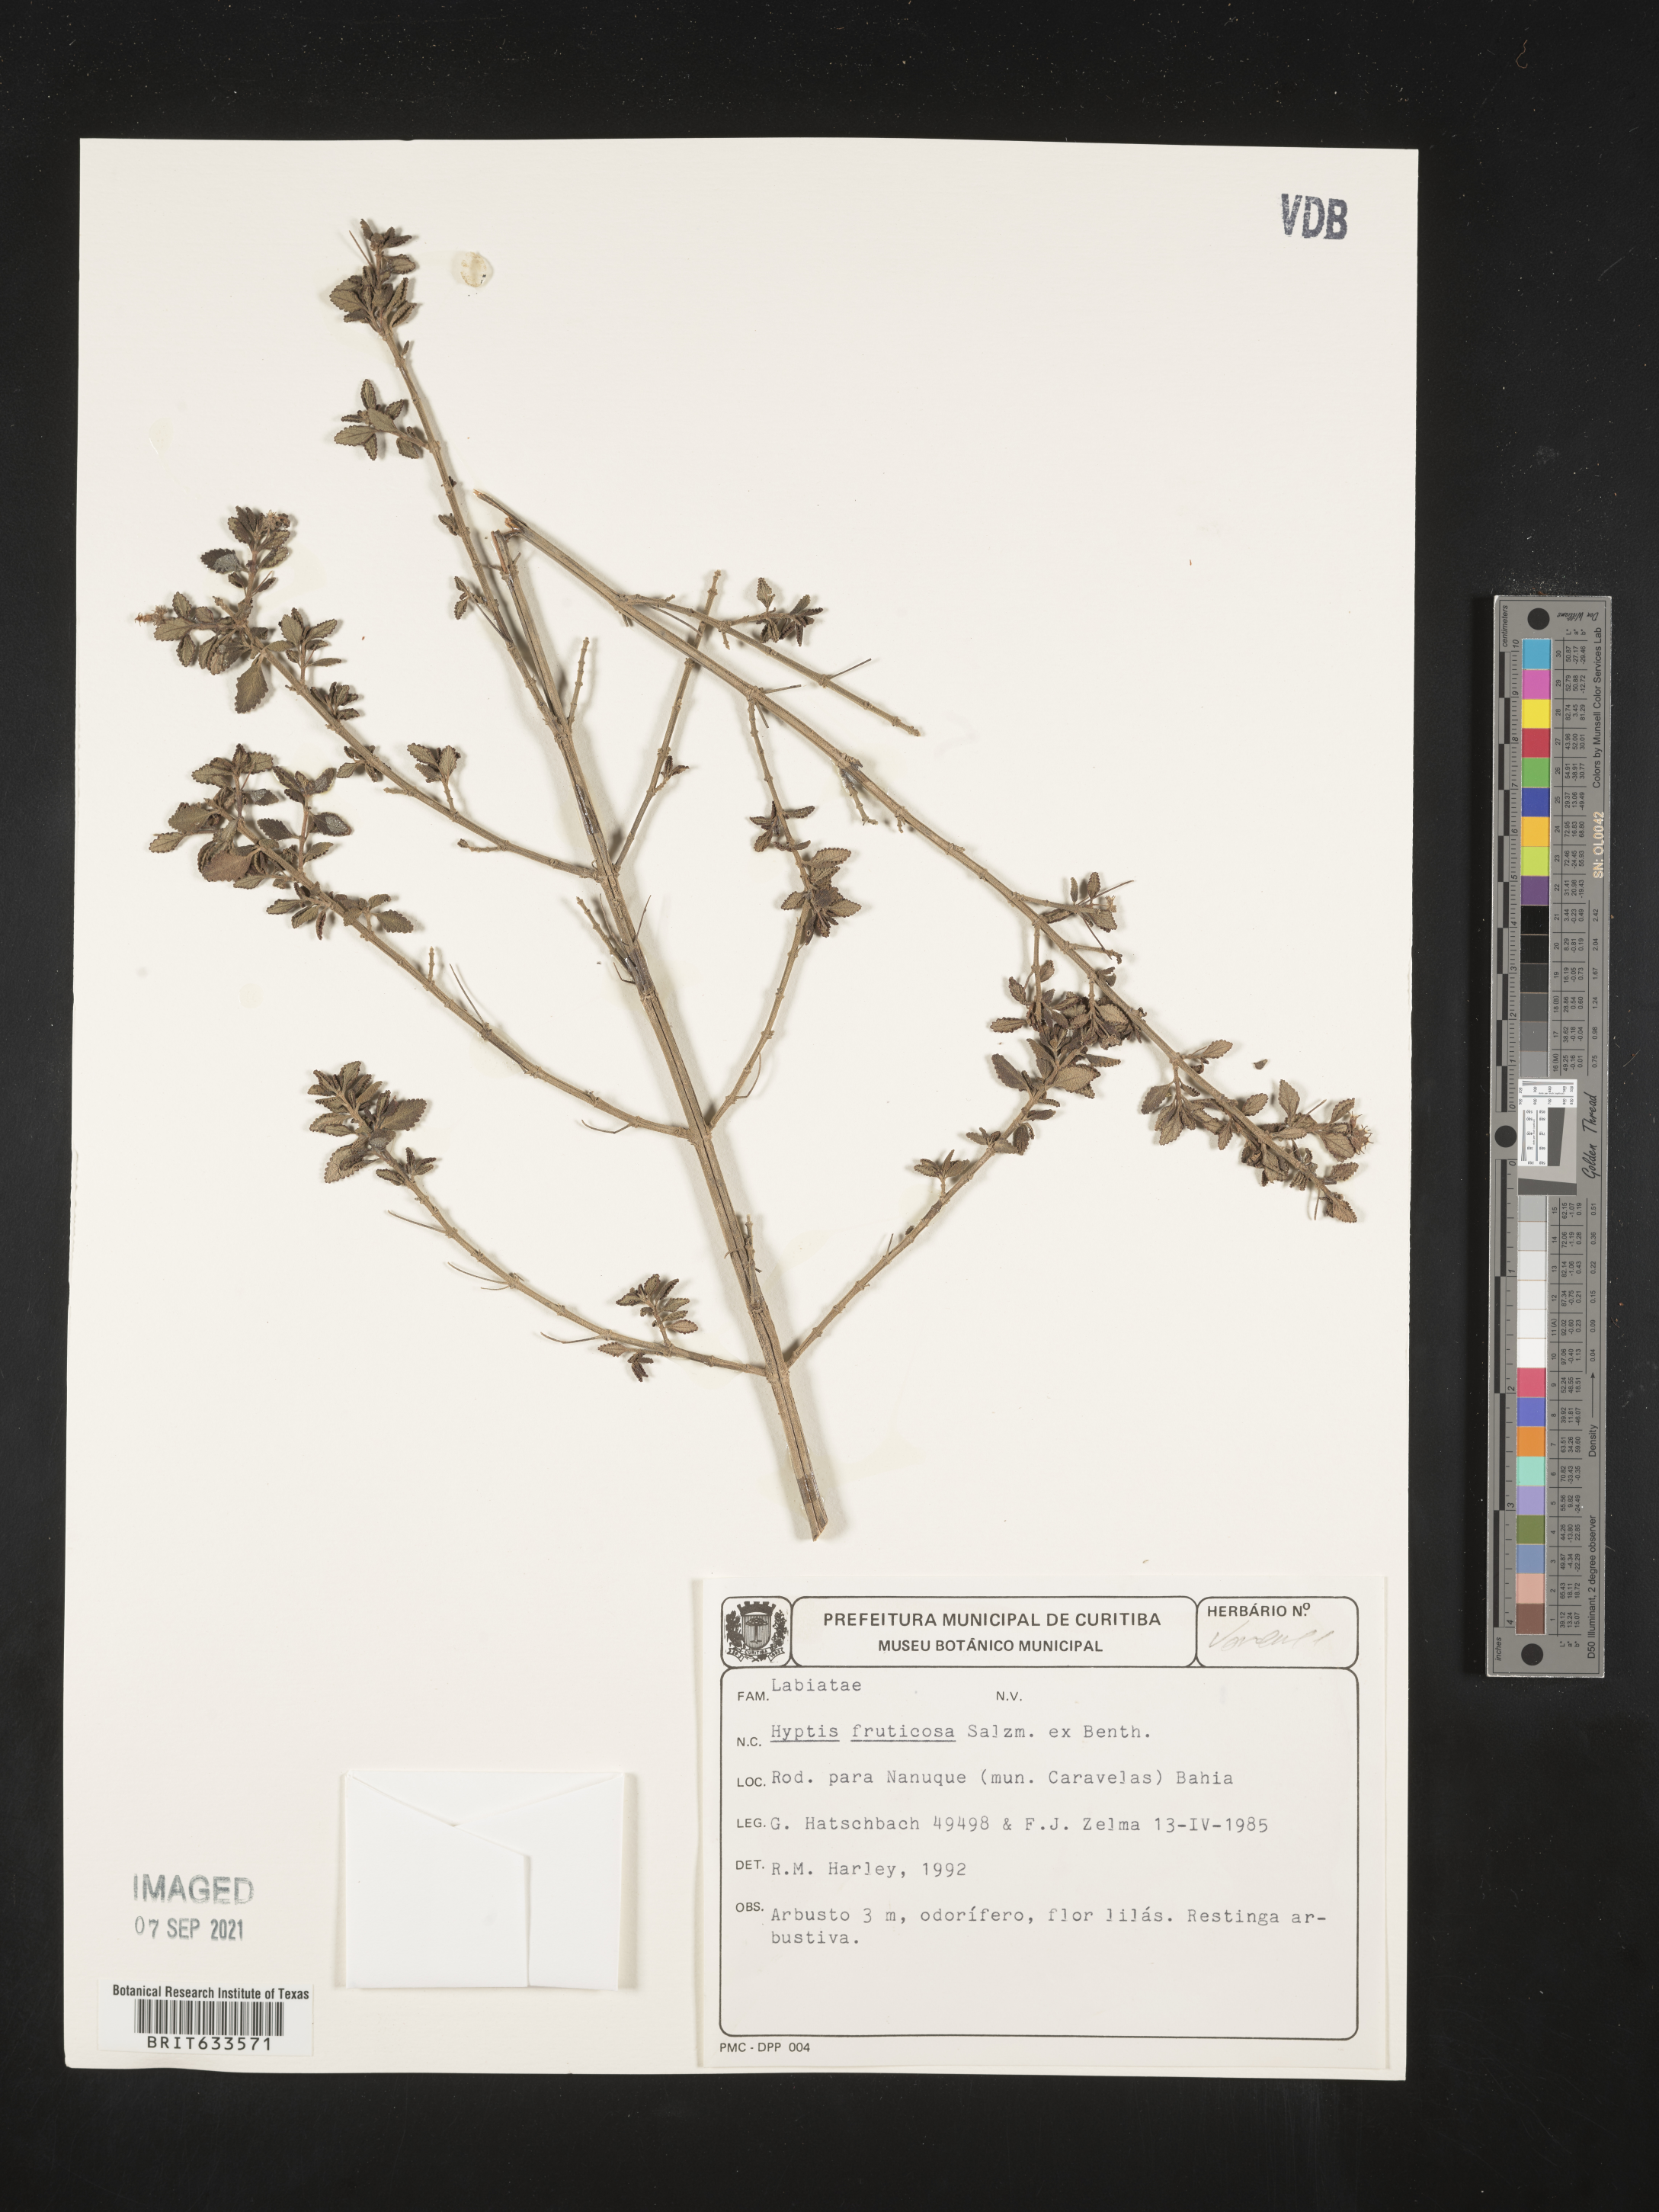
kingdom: Plantae
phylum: Tracheophyta
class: Magnoliopsida
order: Lamiales
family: Lamiaceae
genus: Hyptis
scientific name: Hyptis
